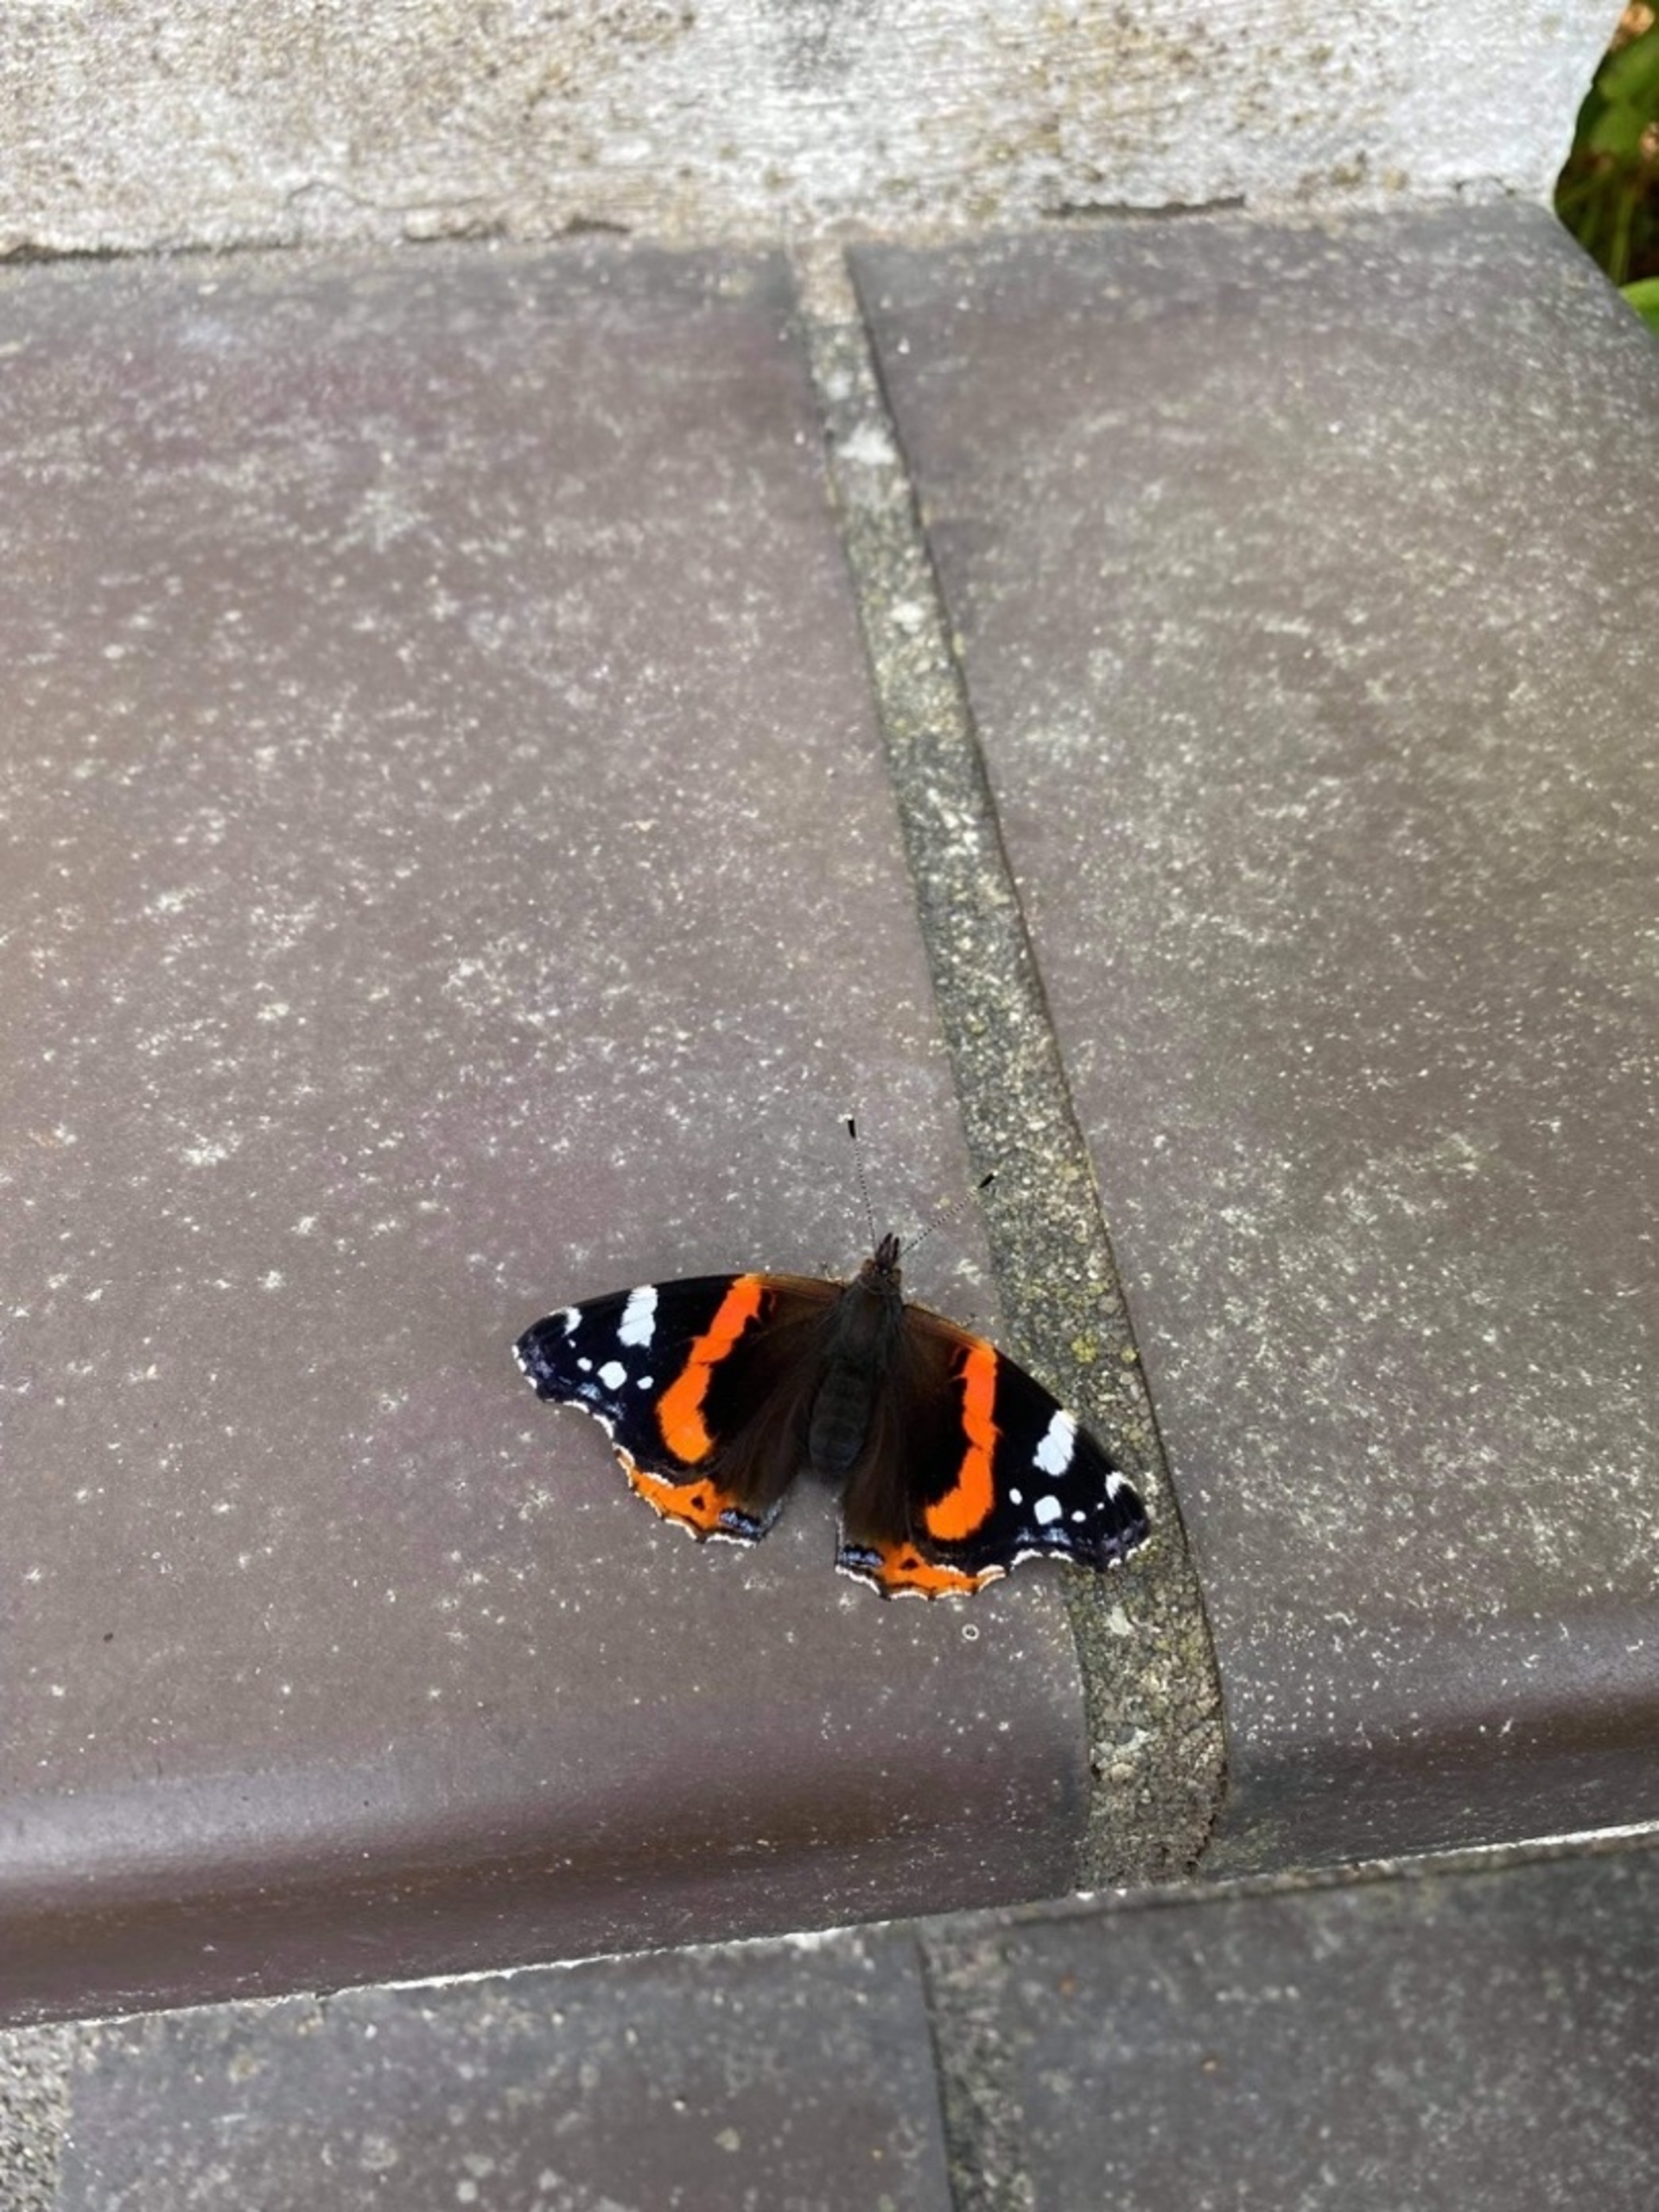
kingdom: Animalia
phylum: Arthropoda
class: Insecta
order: Lepidoptera
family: Nymphalidae
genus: Vanessa
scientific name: Vanessa atalanta
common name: Admiral
